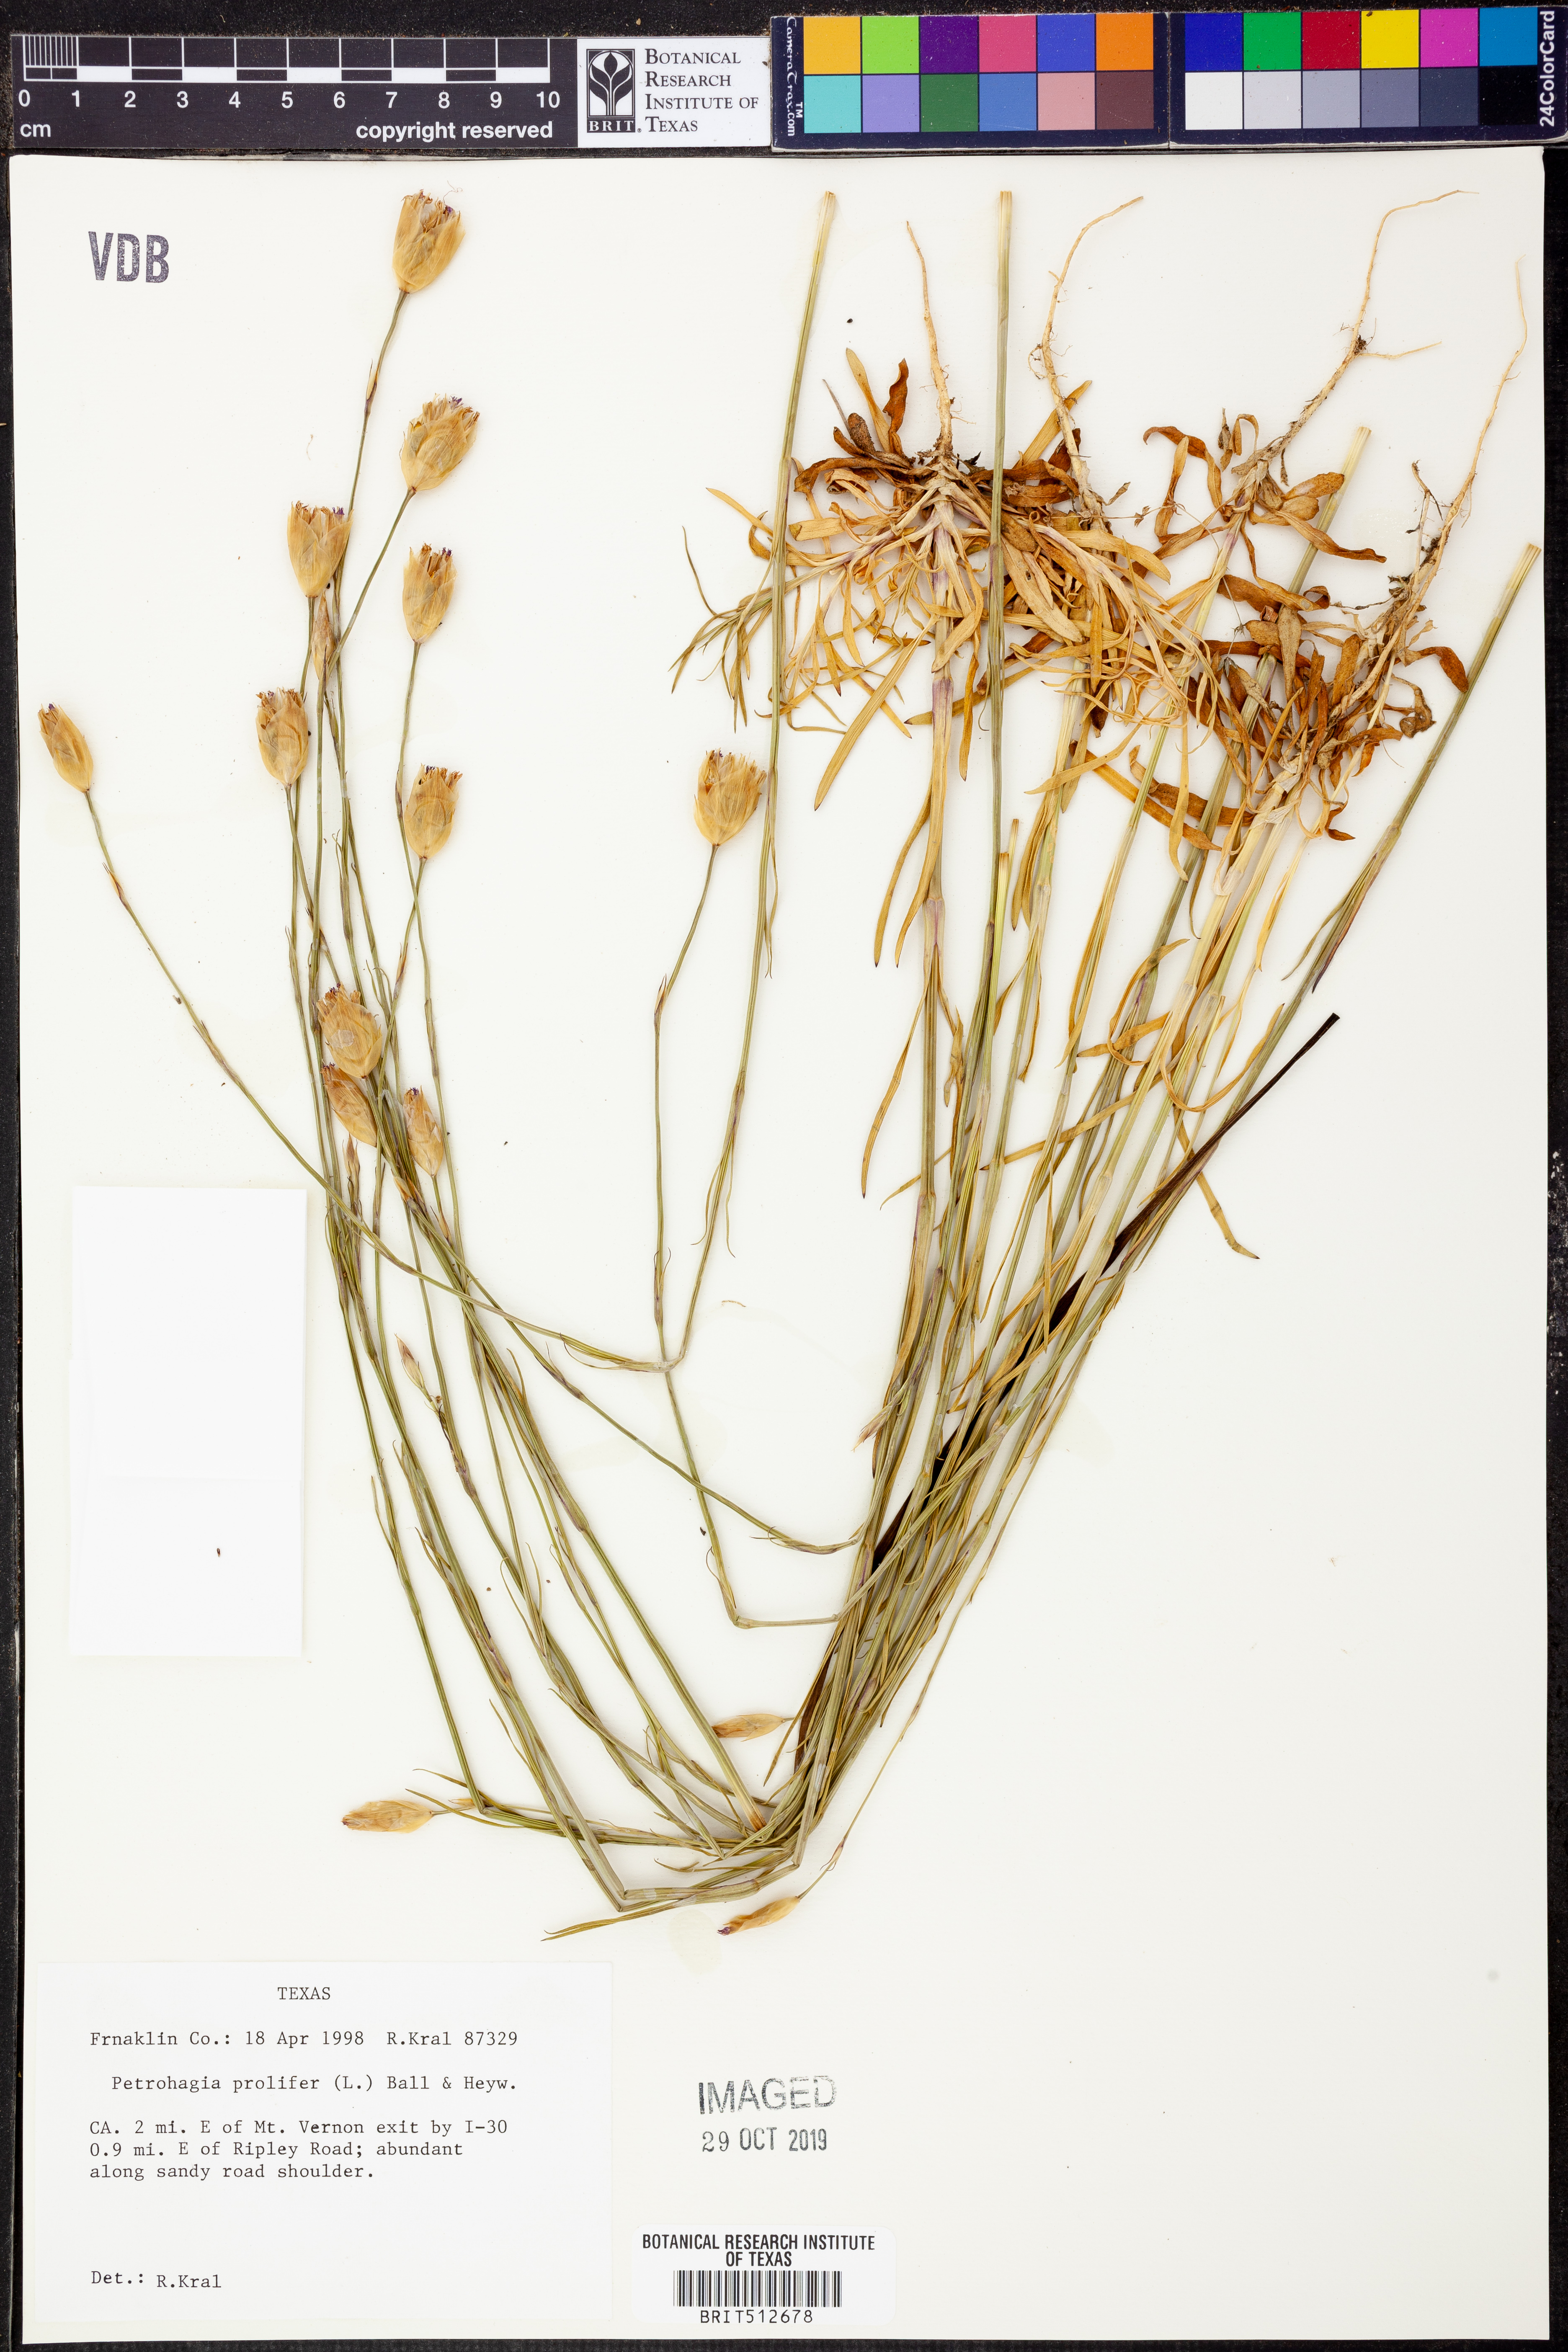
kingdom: Plantae
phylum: Tracheophyta
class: Magnoliopsida
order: Caryophyllales
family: Caryophyllaceae
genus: Petrorhagia
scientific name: Petrorhagia prolifera
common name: Proliferous pink
